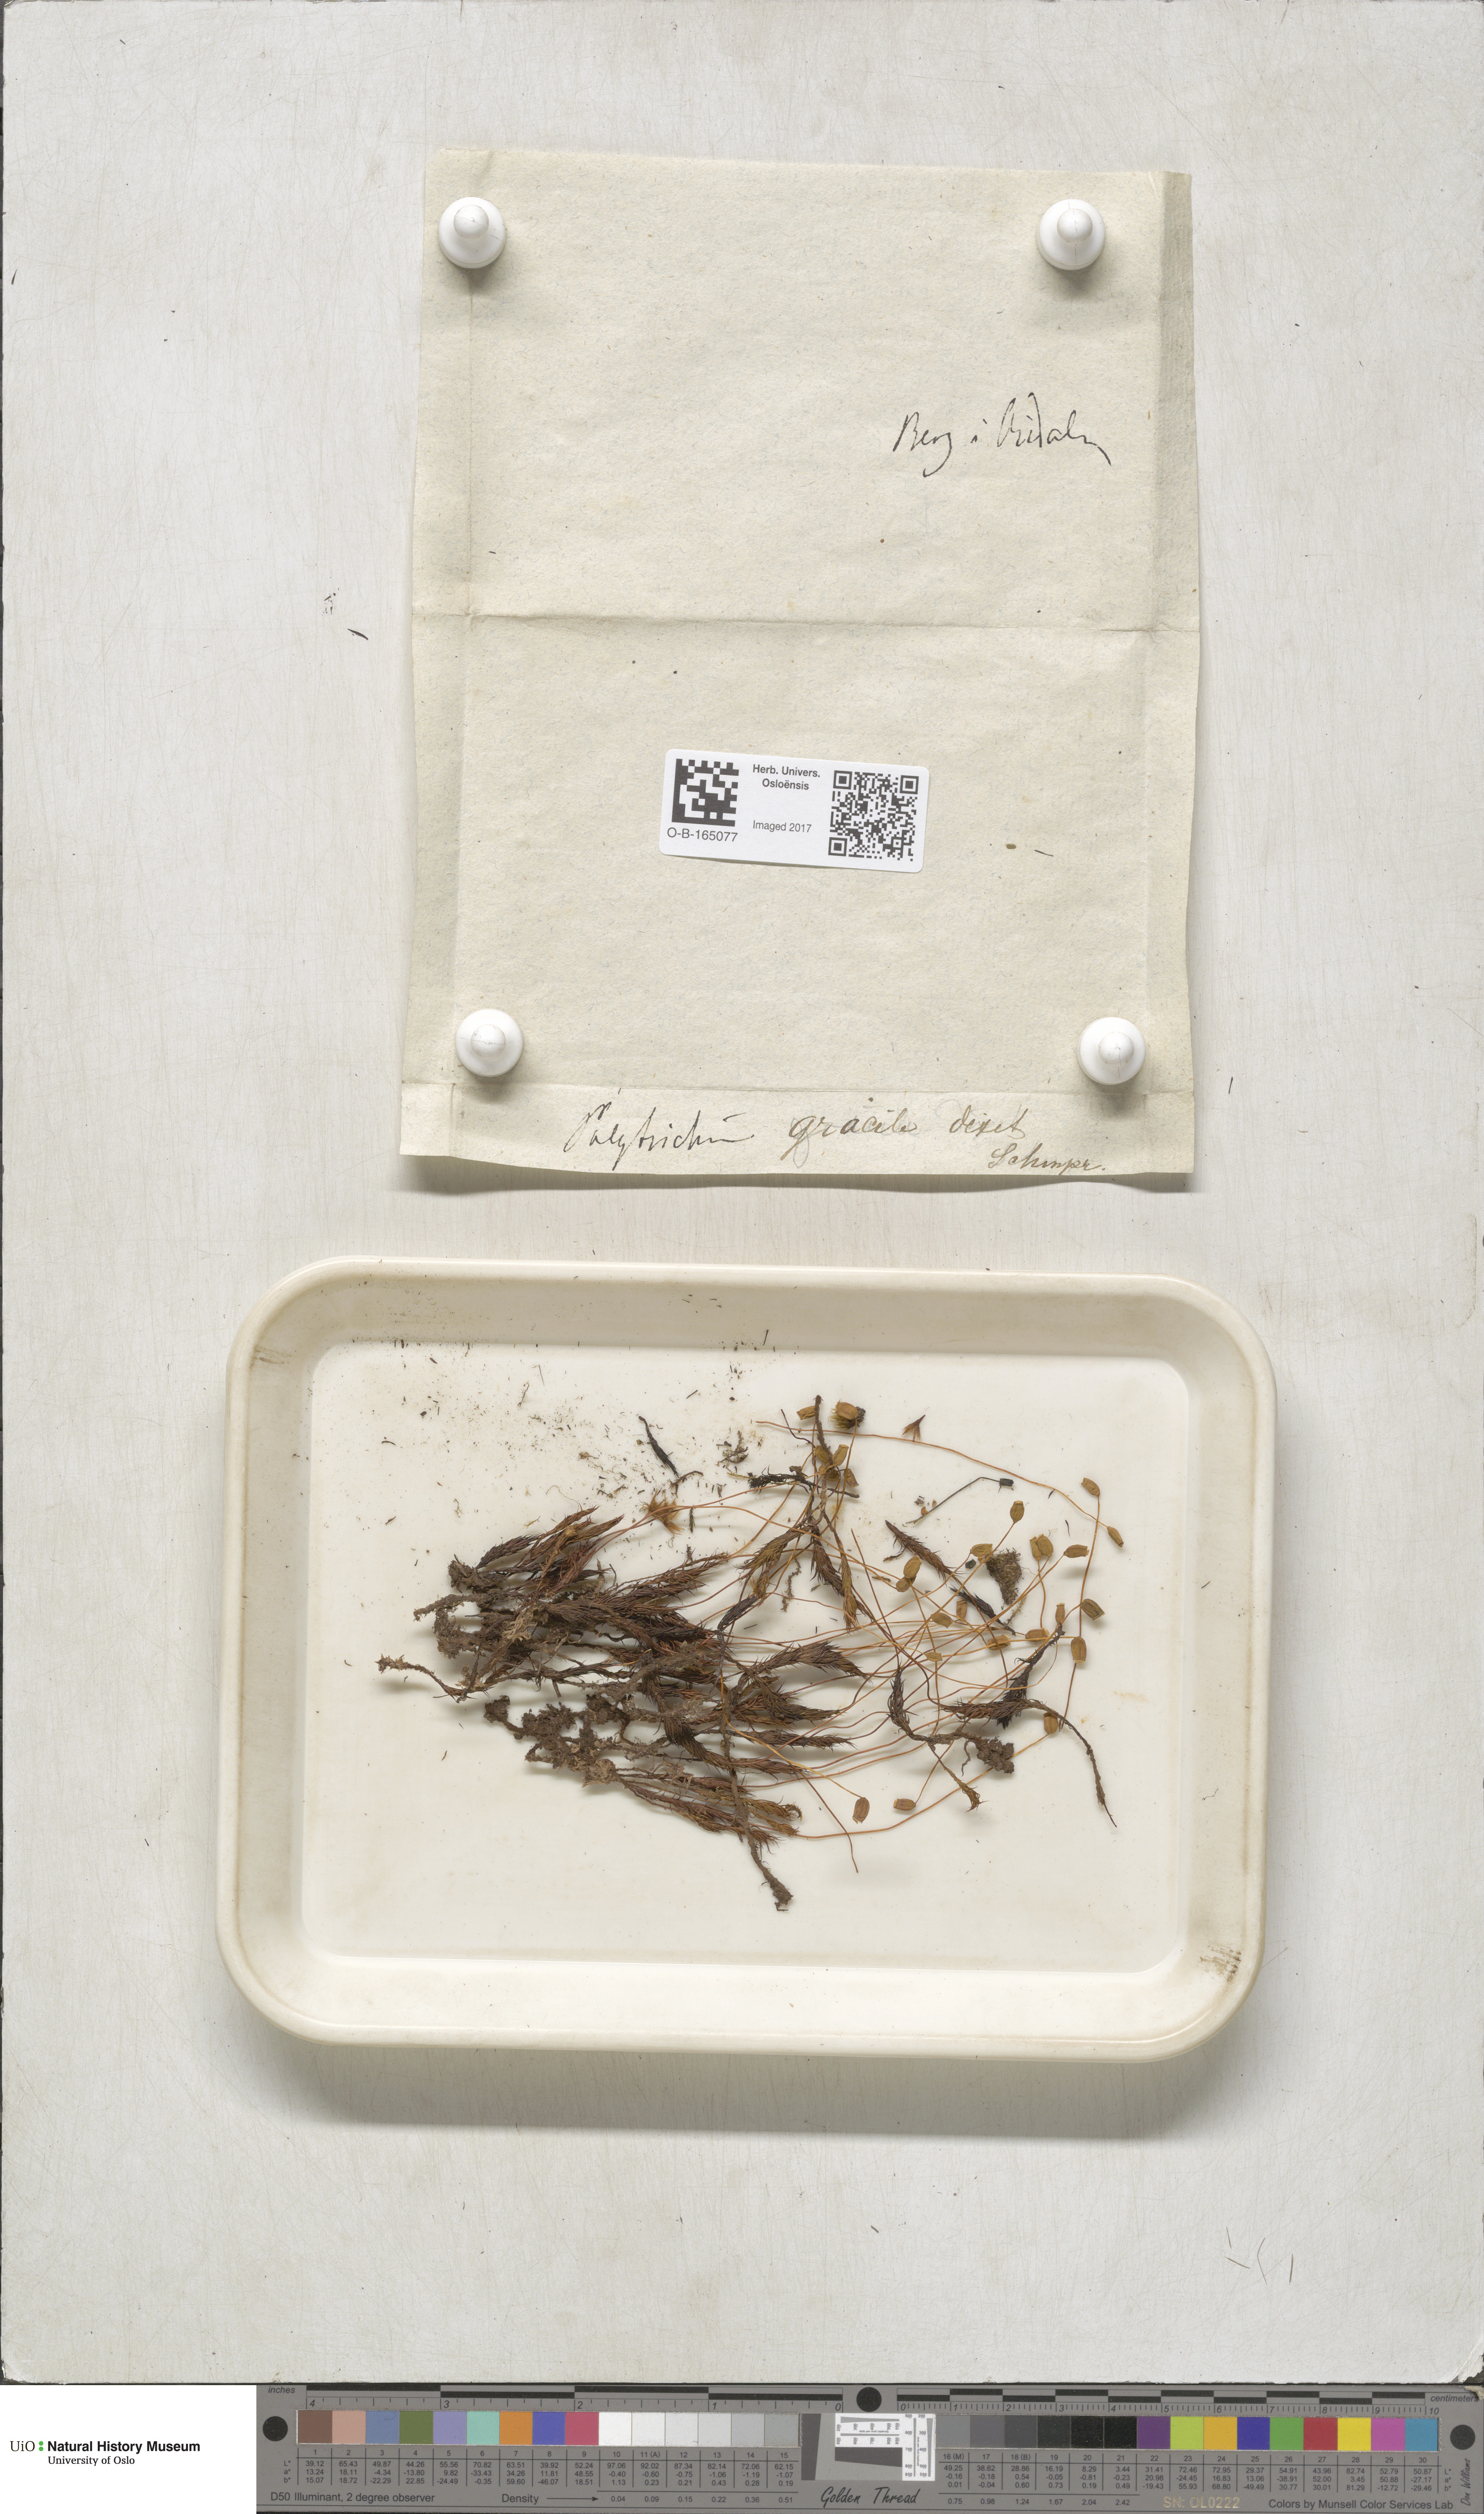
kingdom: Plantae
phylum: Bryophyta
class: Polytrichopsida
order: Polytrichales
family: Polytrichaceae
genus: Polytrichum
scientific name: Polytrichum longisetum
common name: Long-stalked haircap moss
